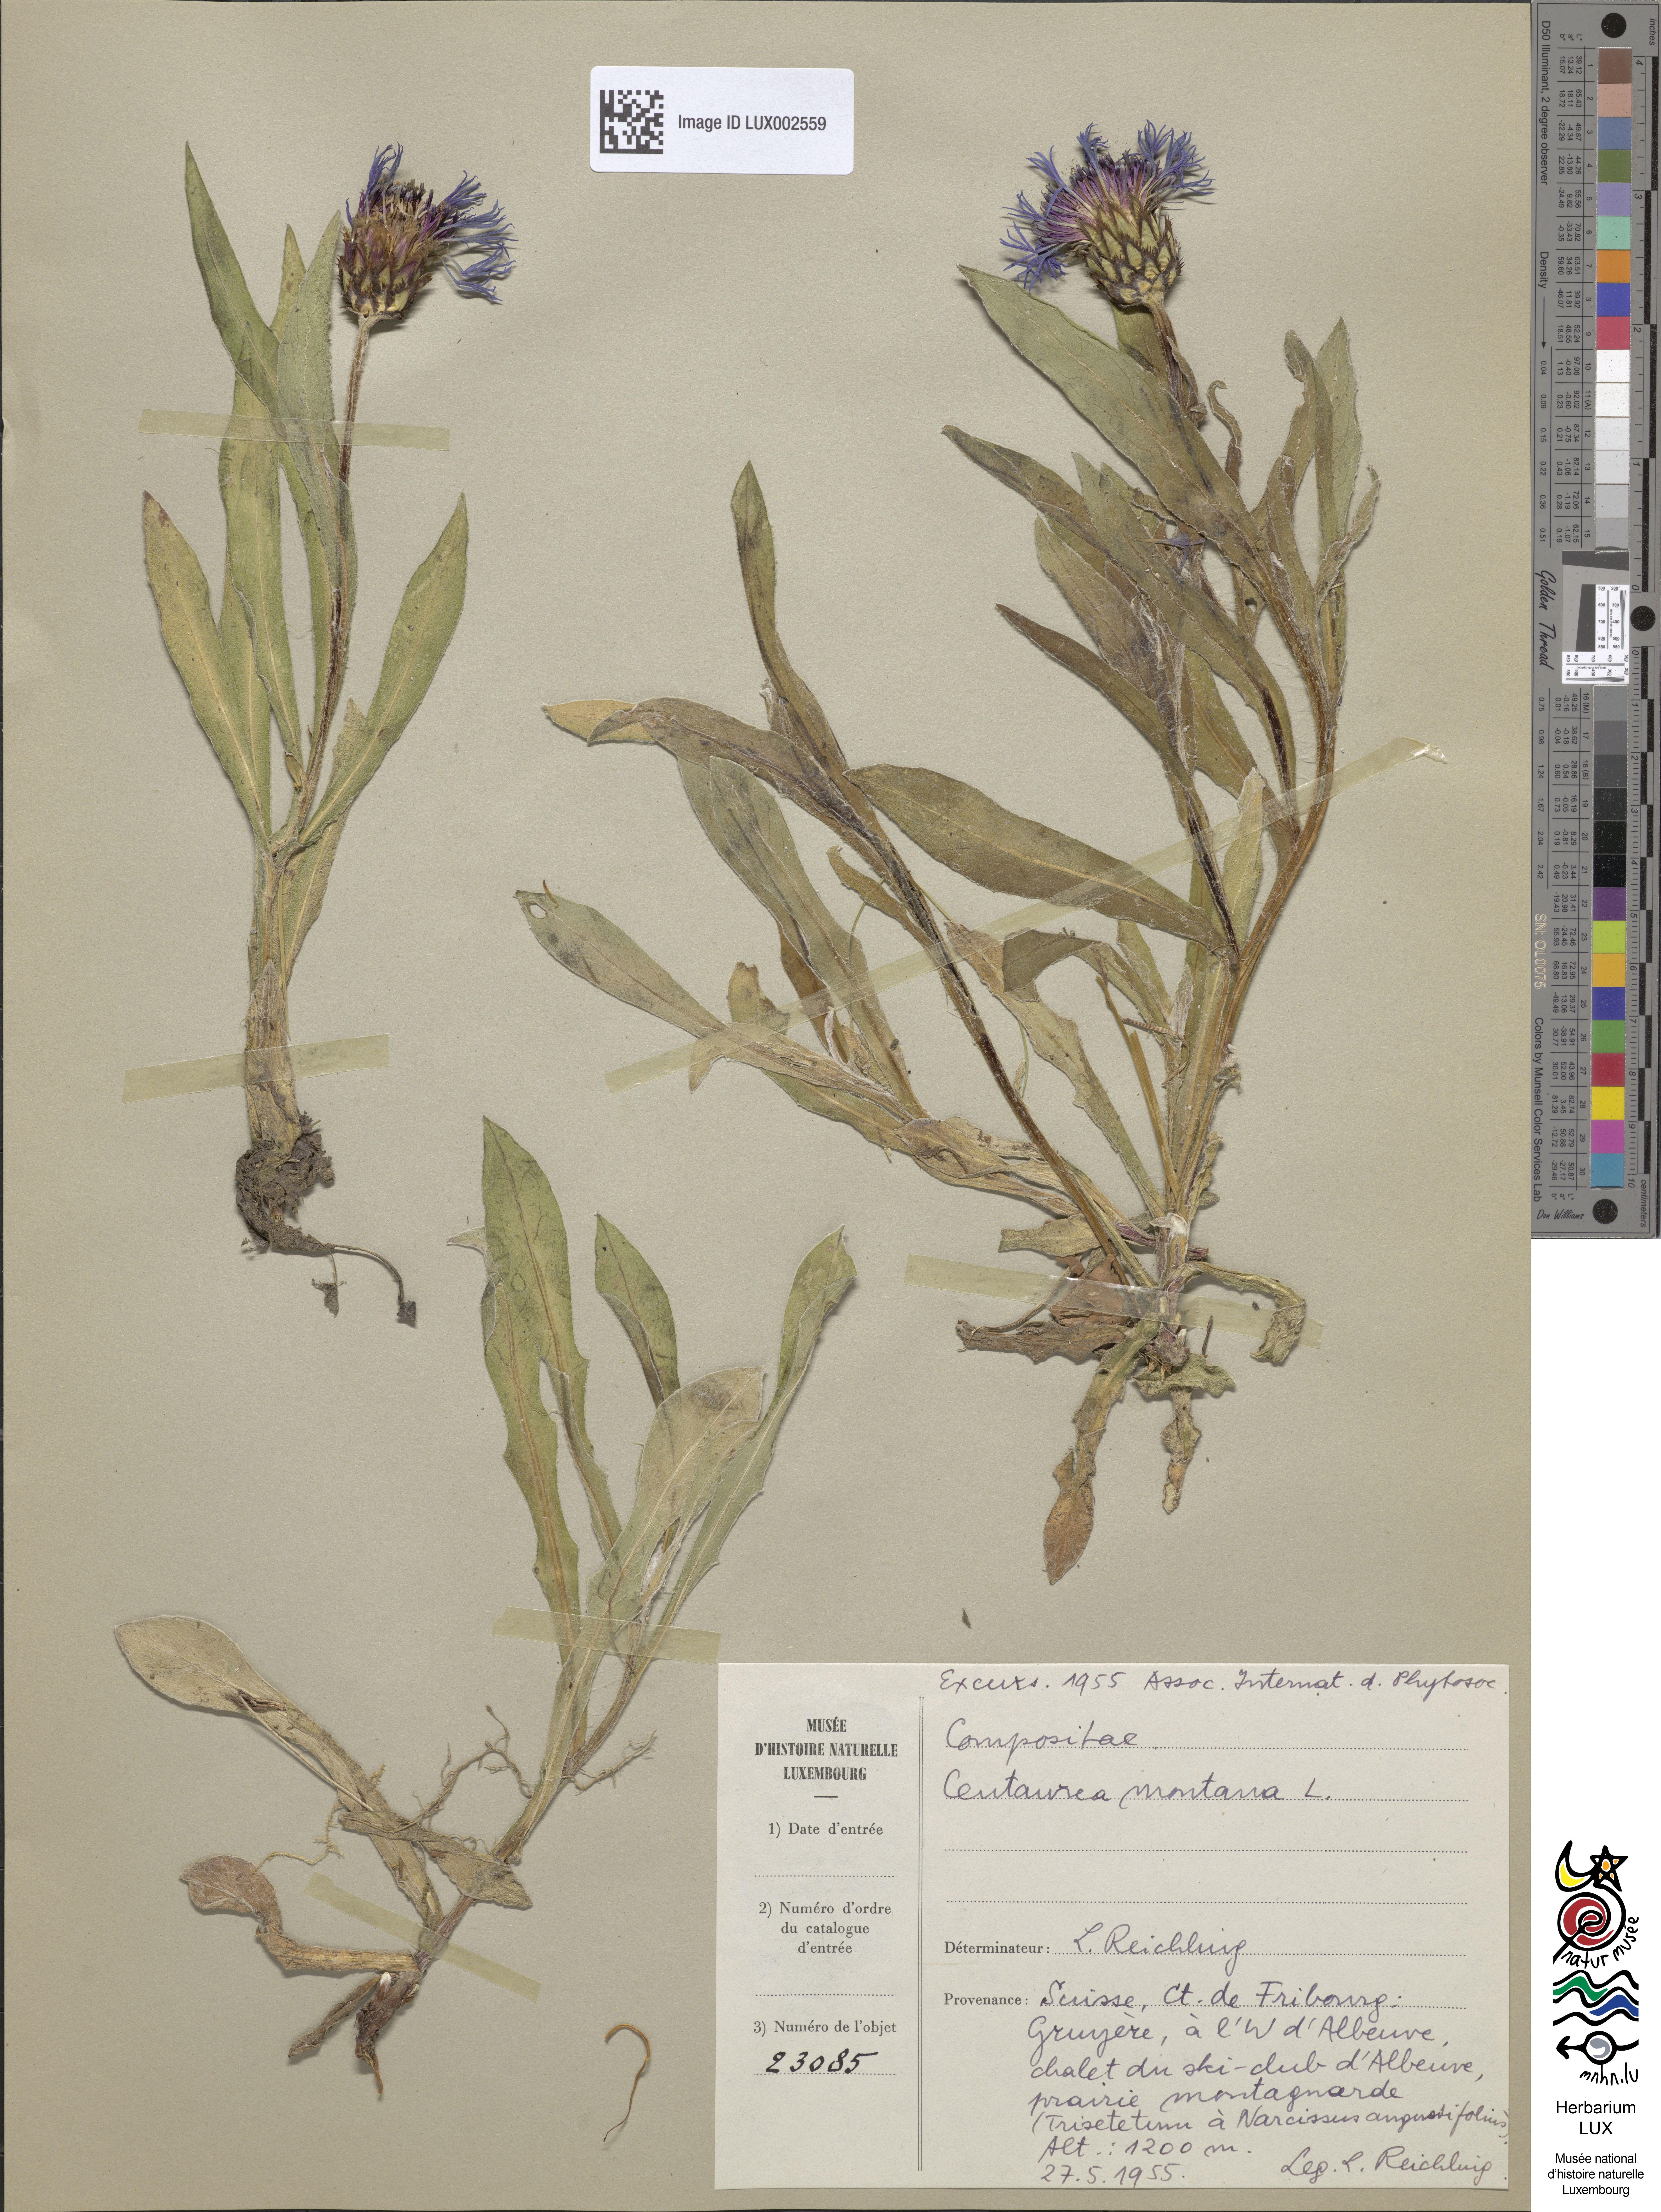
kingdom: Plantae
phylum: Tracheophyta
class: Magnoliopsida
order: Asterales
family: Asteraceae
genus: Centaurea
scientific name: Centaurea montana
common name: Perennial cornflower
